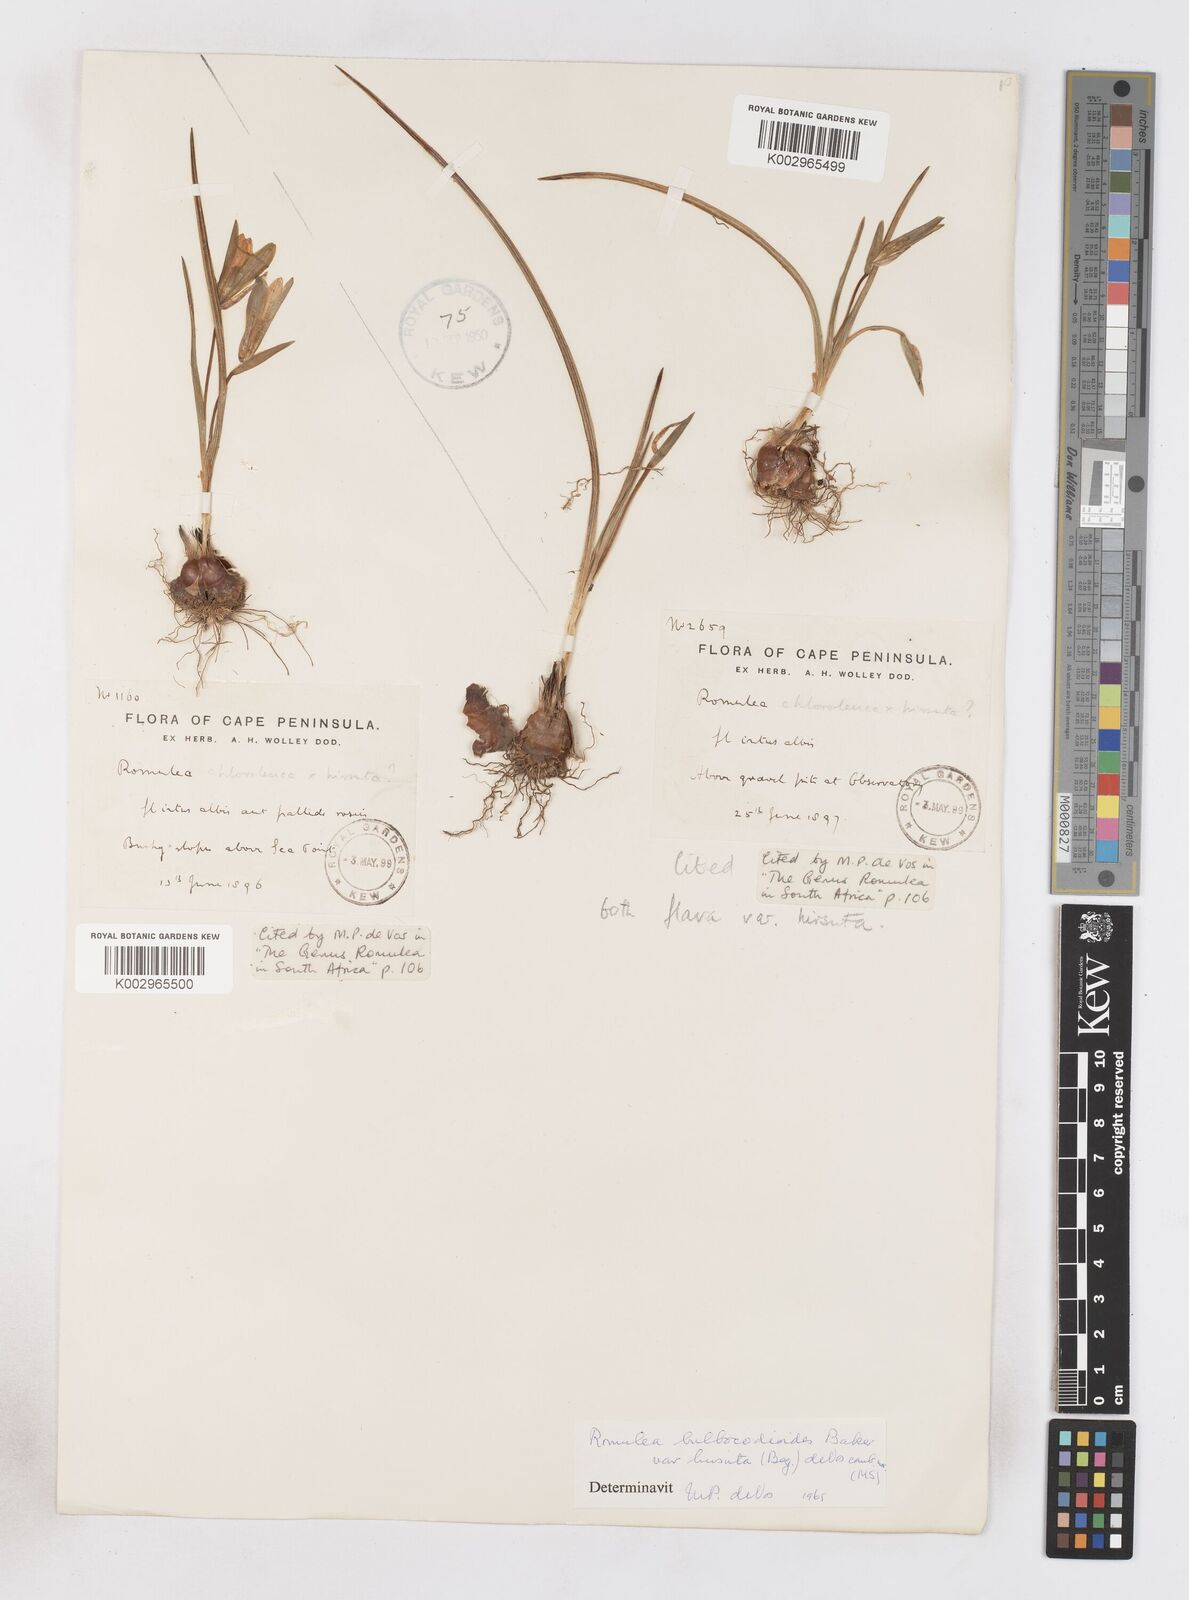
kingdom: Plantae
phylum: Tracheophyta
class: Liliopsida
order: Asparagales
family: Iridaceae
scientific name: Iridaceae
